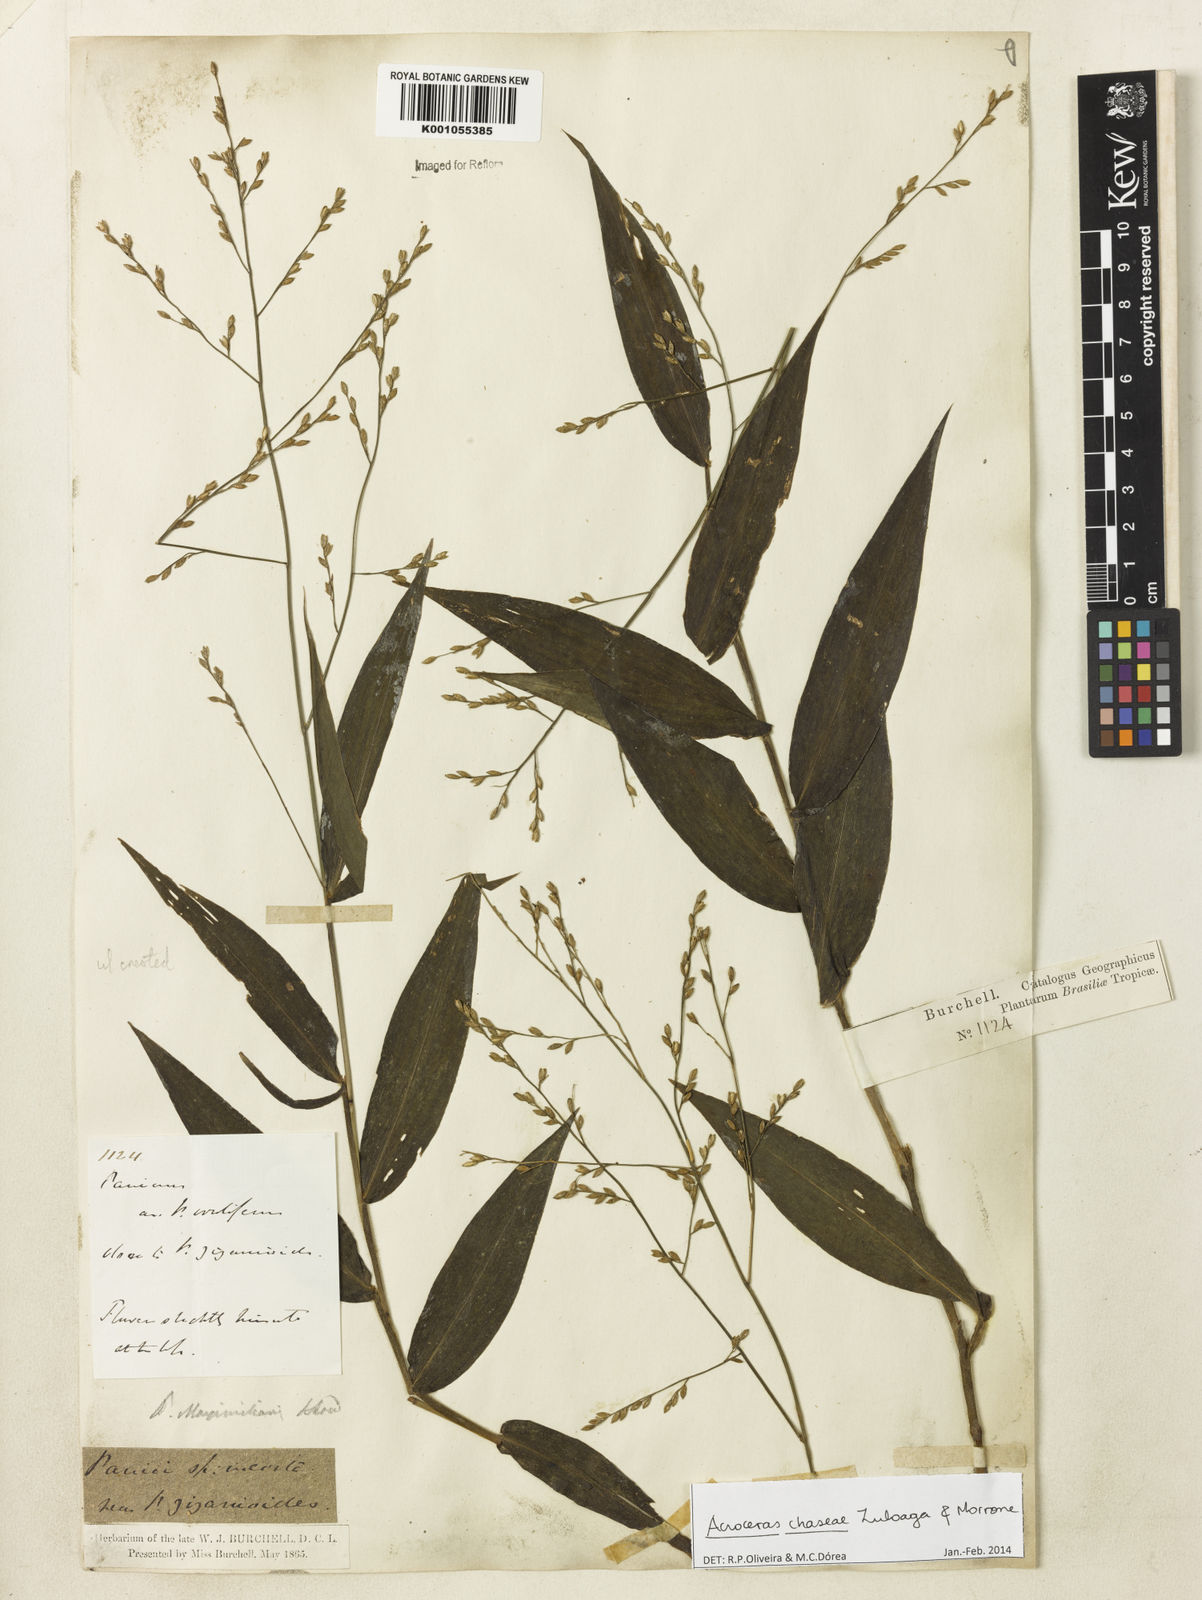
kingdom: Plantae
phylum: Tracheophyta
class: Liliopsida
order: Poales
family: Poaceae
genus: Acroceras
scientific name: Acroceras chaseae
